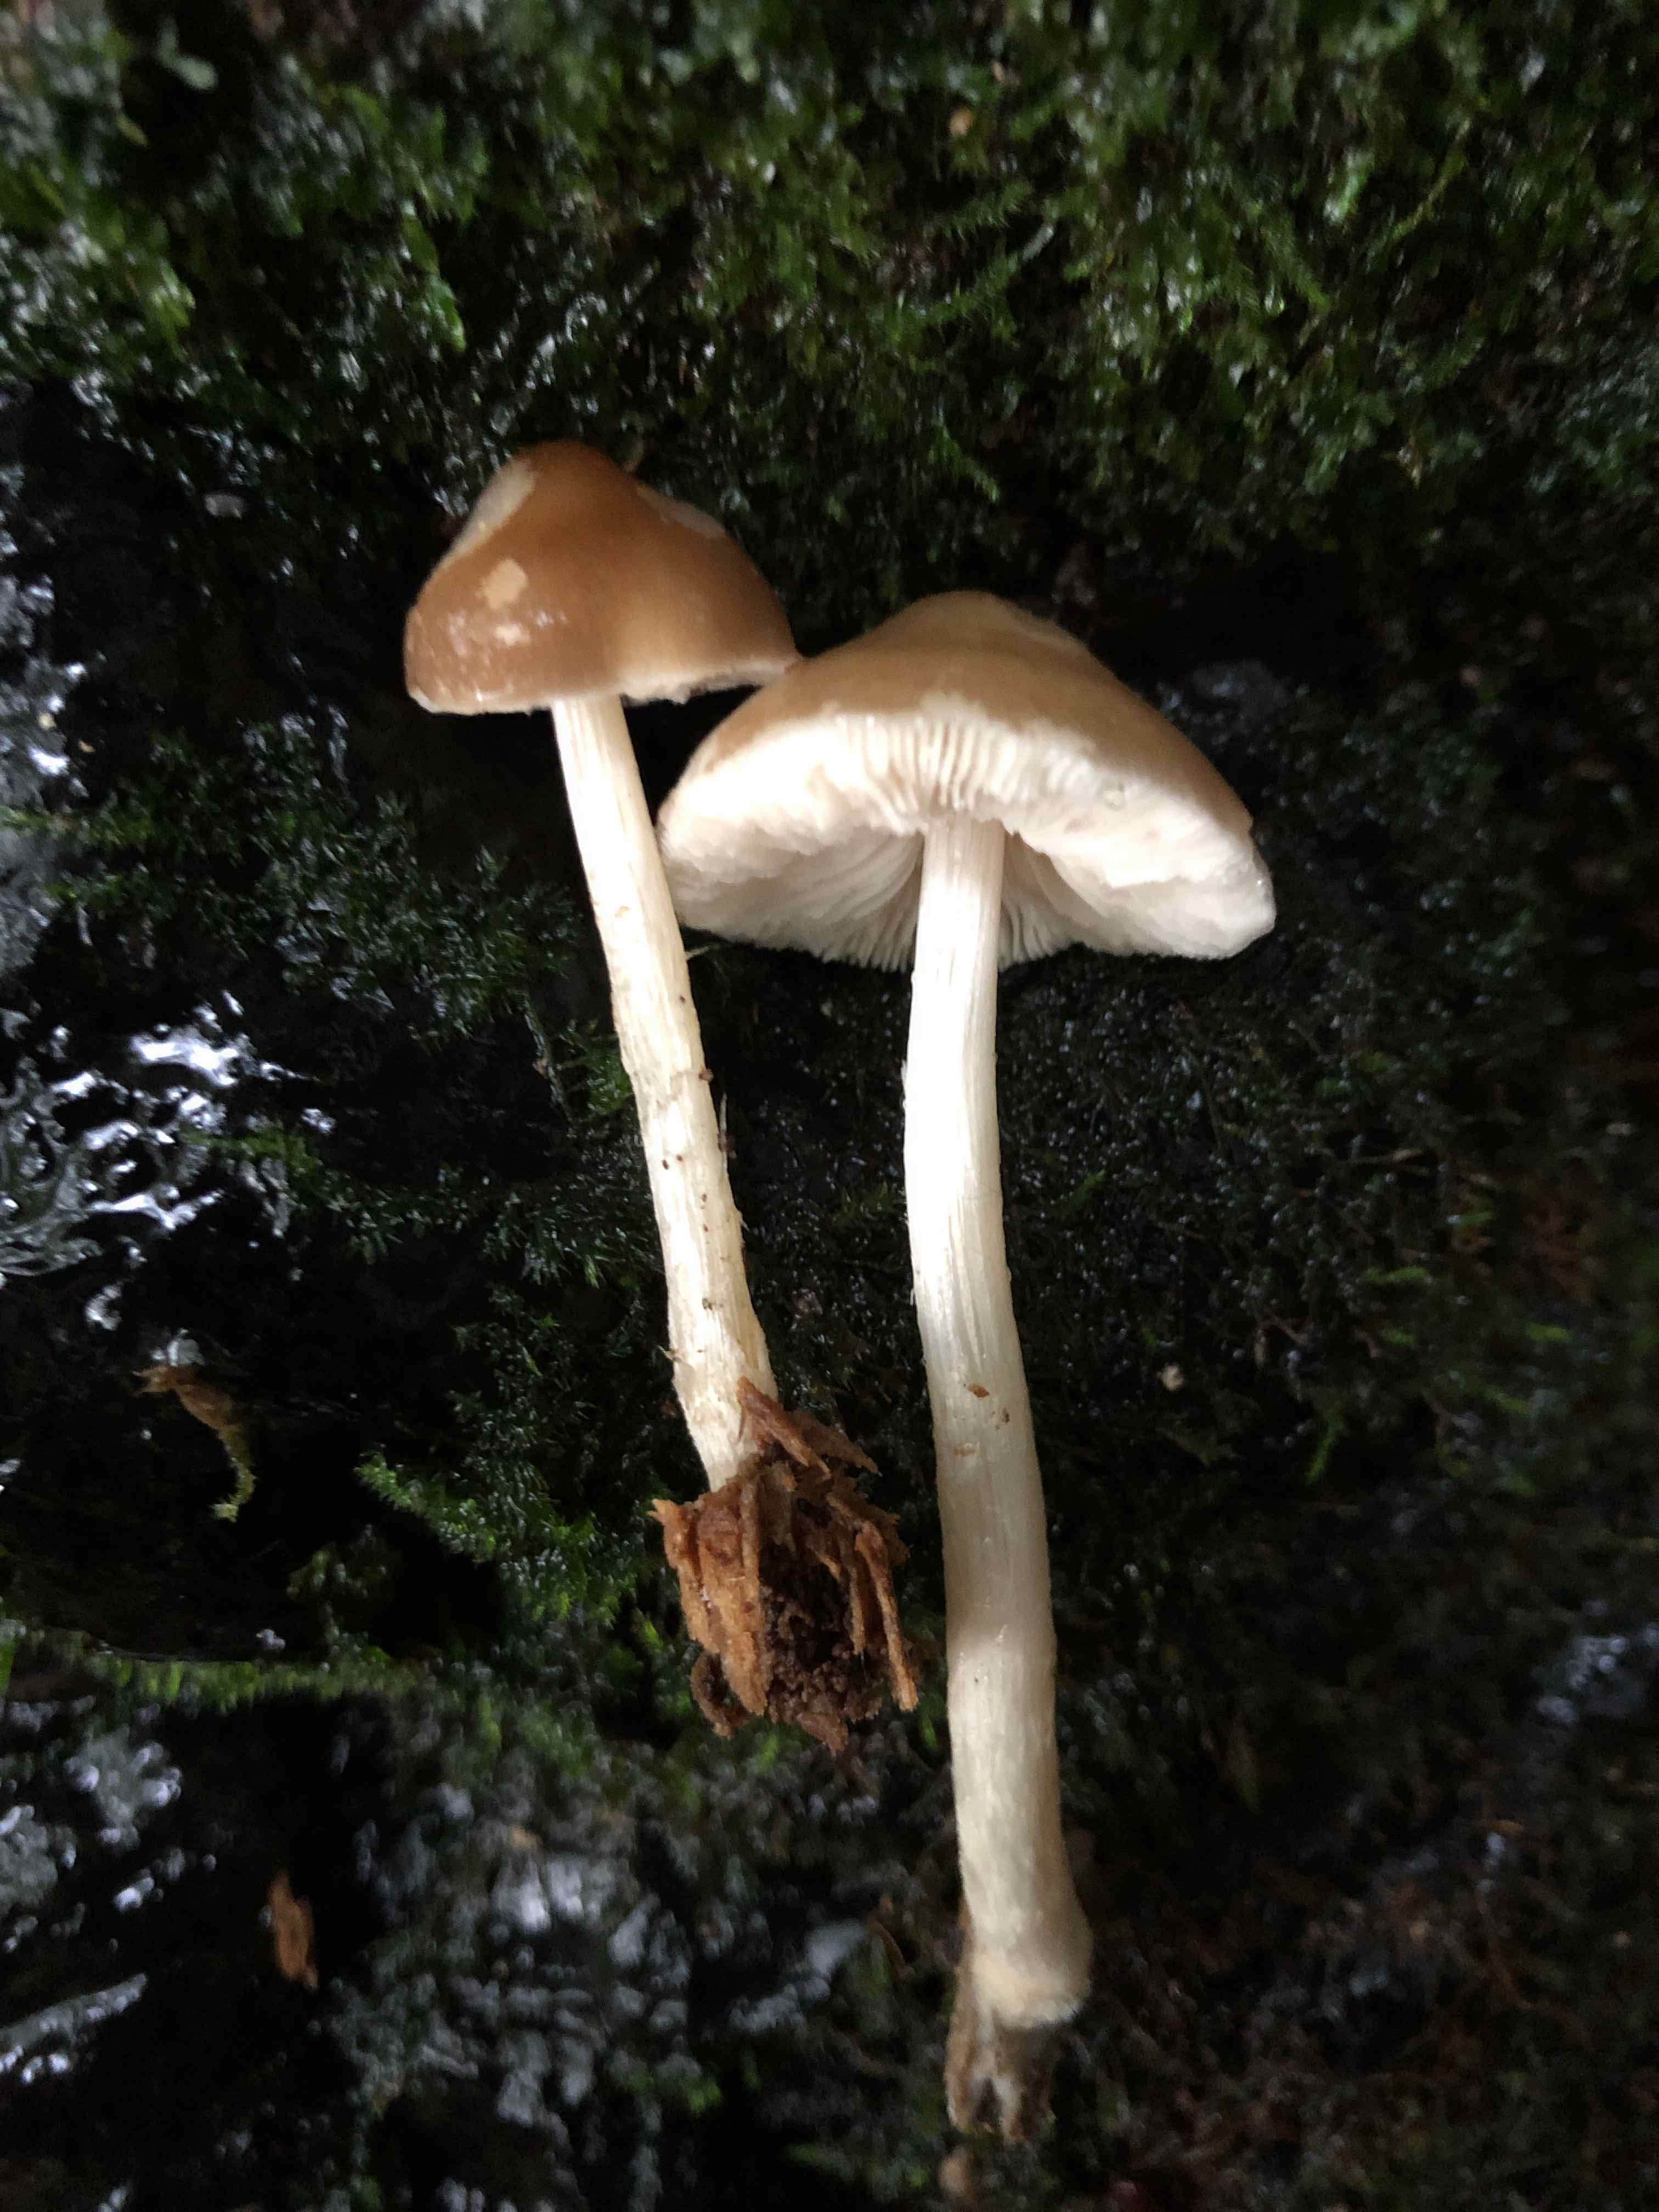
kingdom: Fungi
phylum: Basidiomycota
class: Agaricomycetes
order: Agaricales
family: Pluteaceae
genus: Pluteus
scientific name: Pluteus phlebophorus
